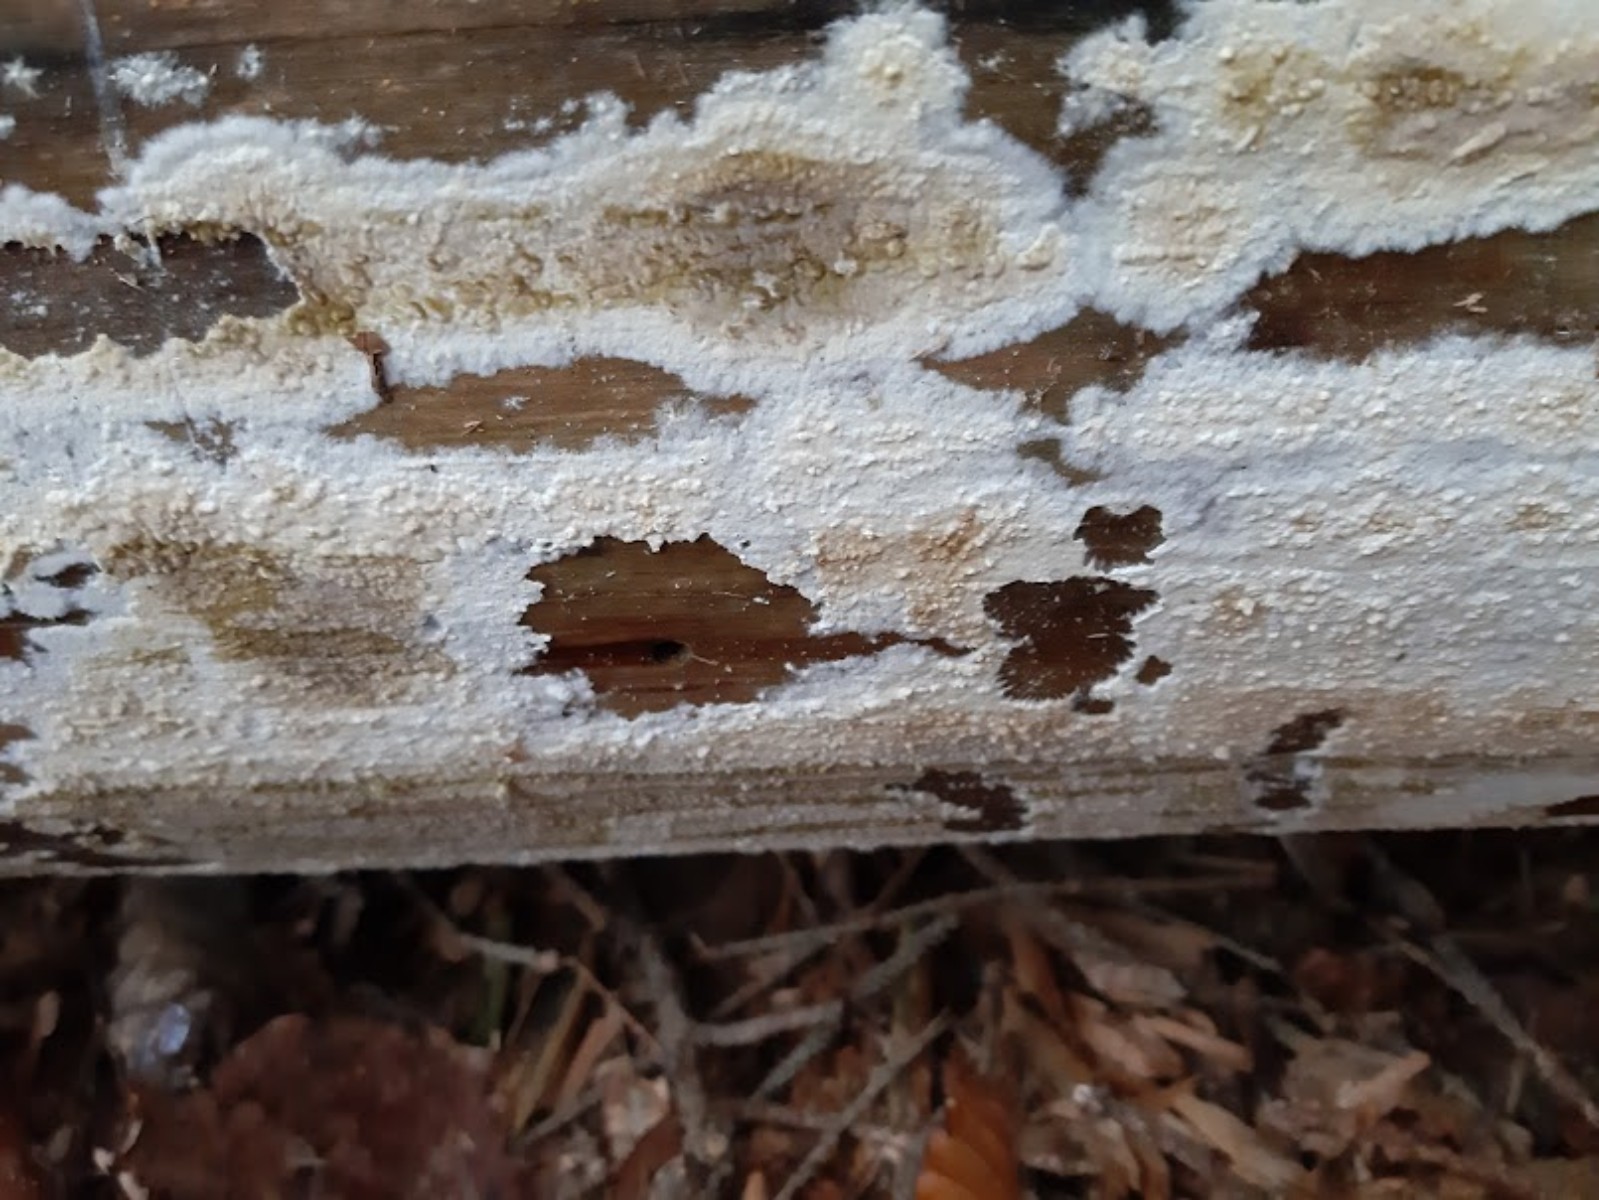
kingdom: Fungi
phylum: Basidiomycota
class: Agaricomycetes
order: Boletales
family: Coniophoraceae
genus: Coniophora
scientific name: Coniophora puteana
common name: gul tømmersvamp
